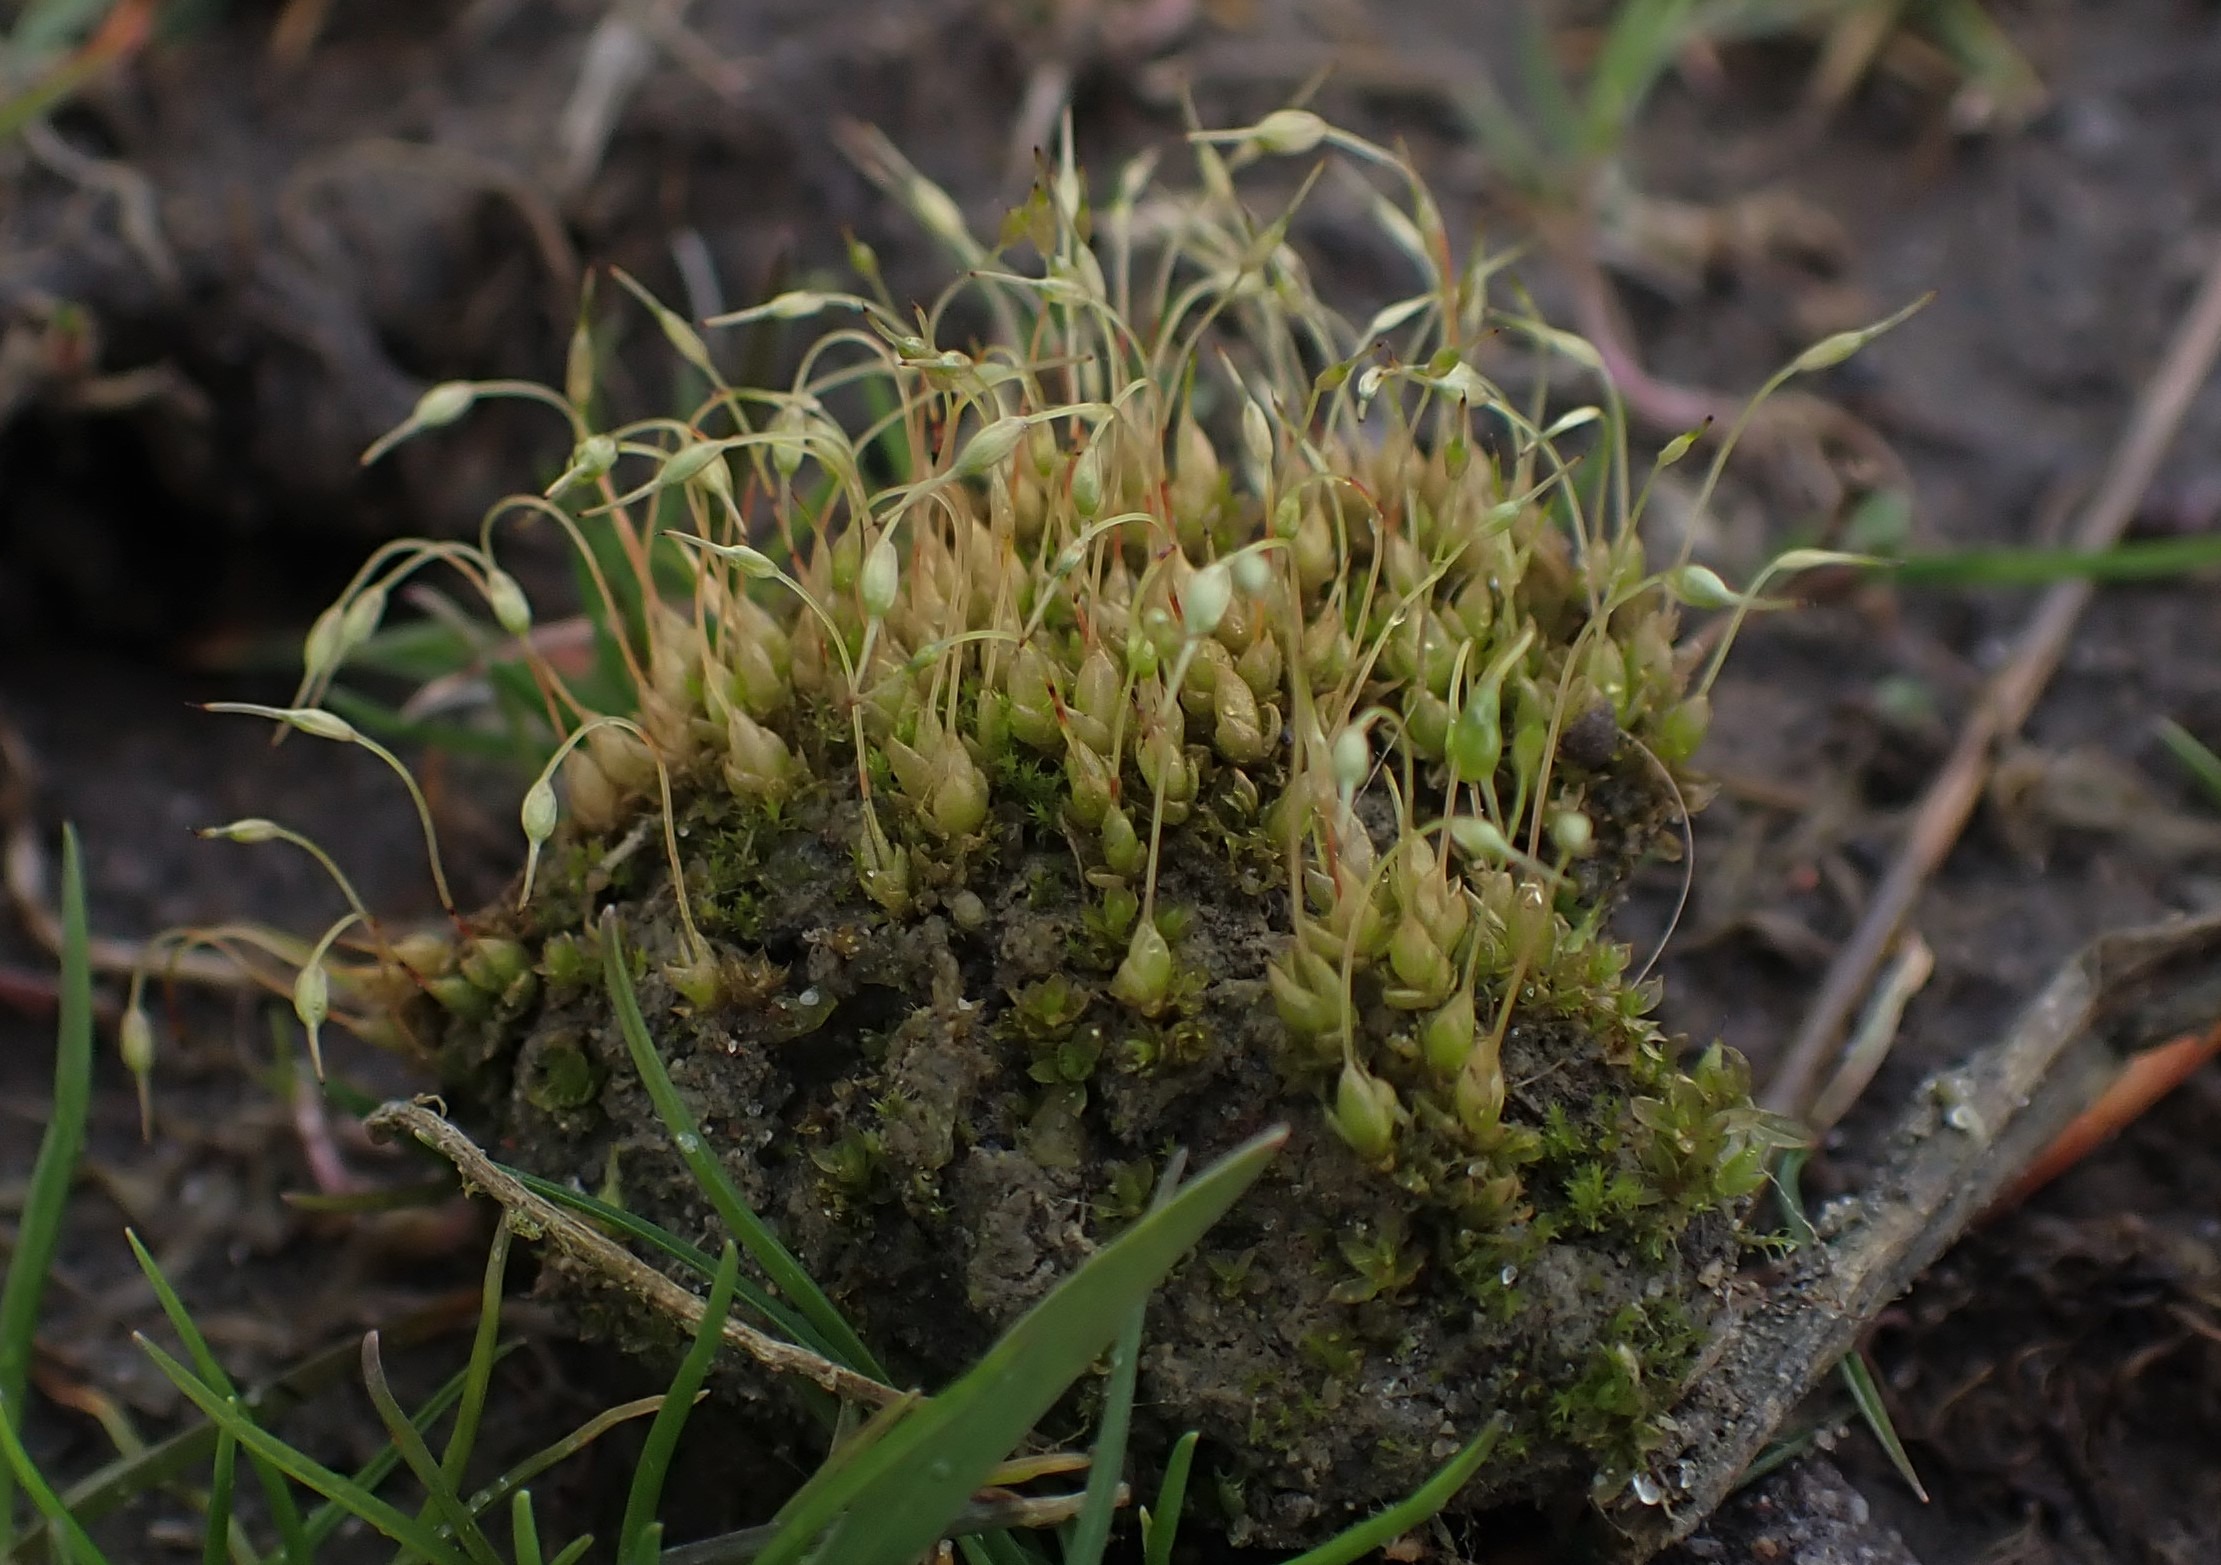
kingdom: Plantae
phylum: Bryophyta
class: Bryopsida
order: Funariales
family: Funariaceae
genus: Funaria
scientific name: Funaria hygrometrica
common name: Almindelig snobørste
